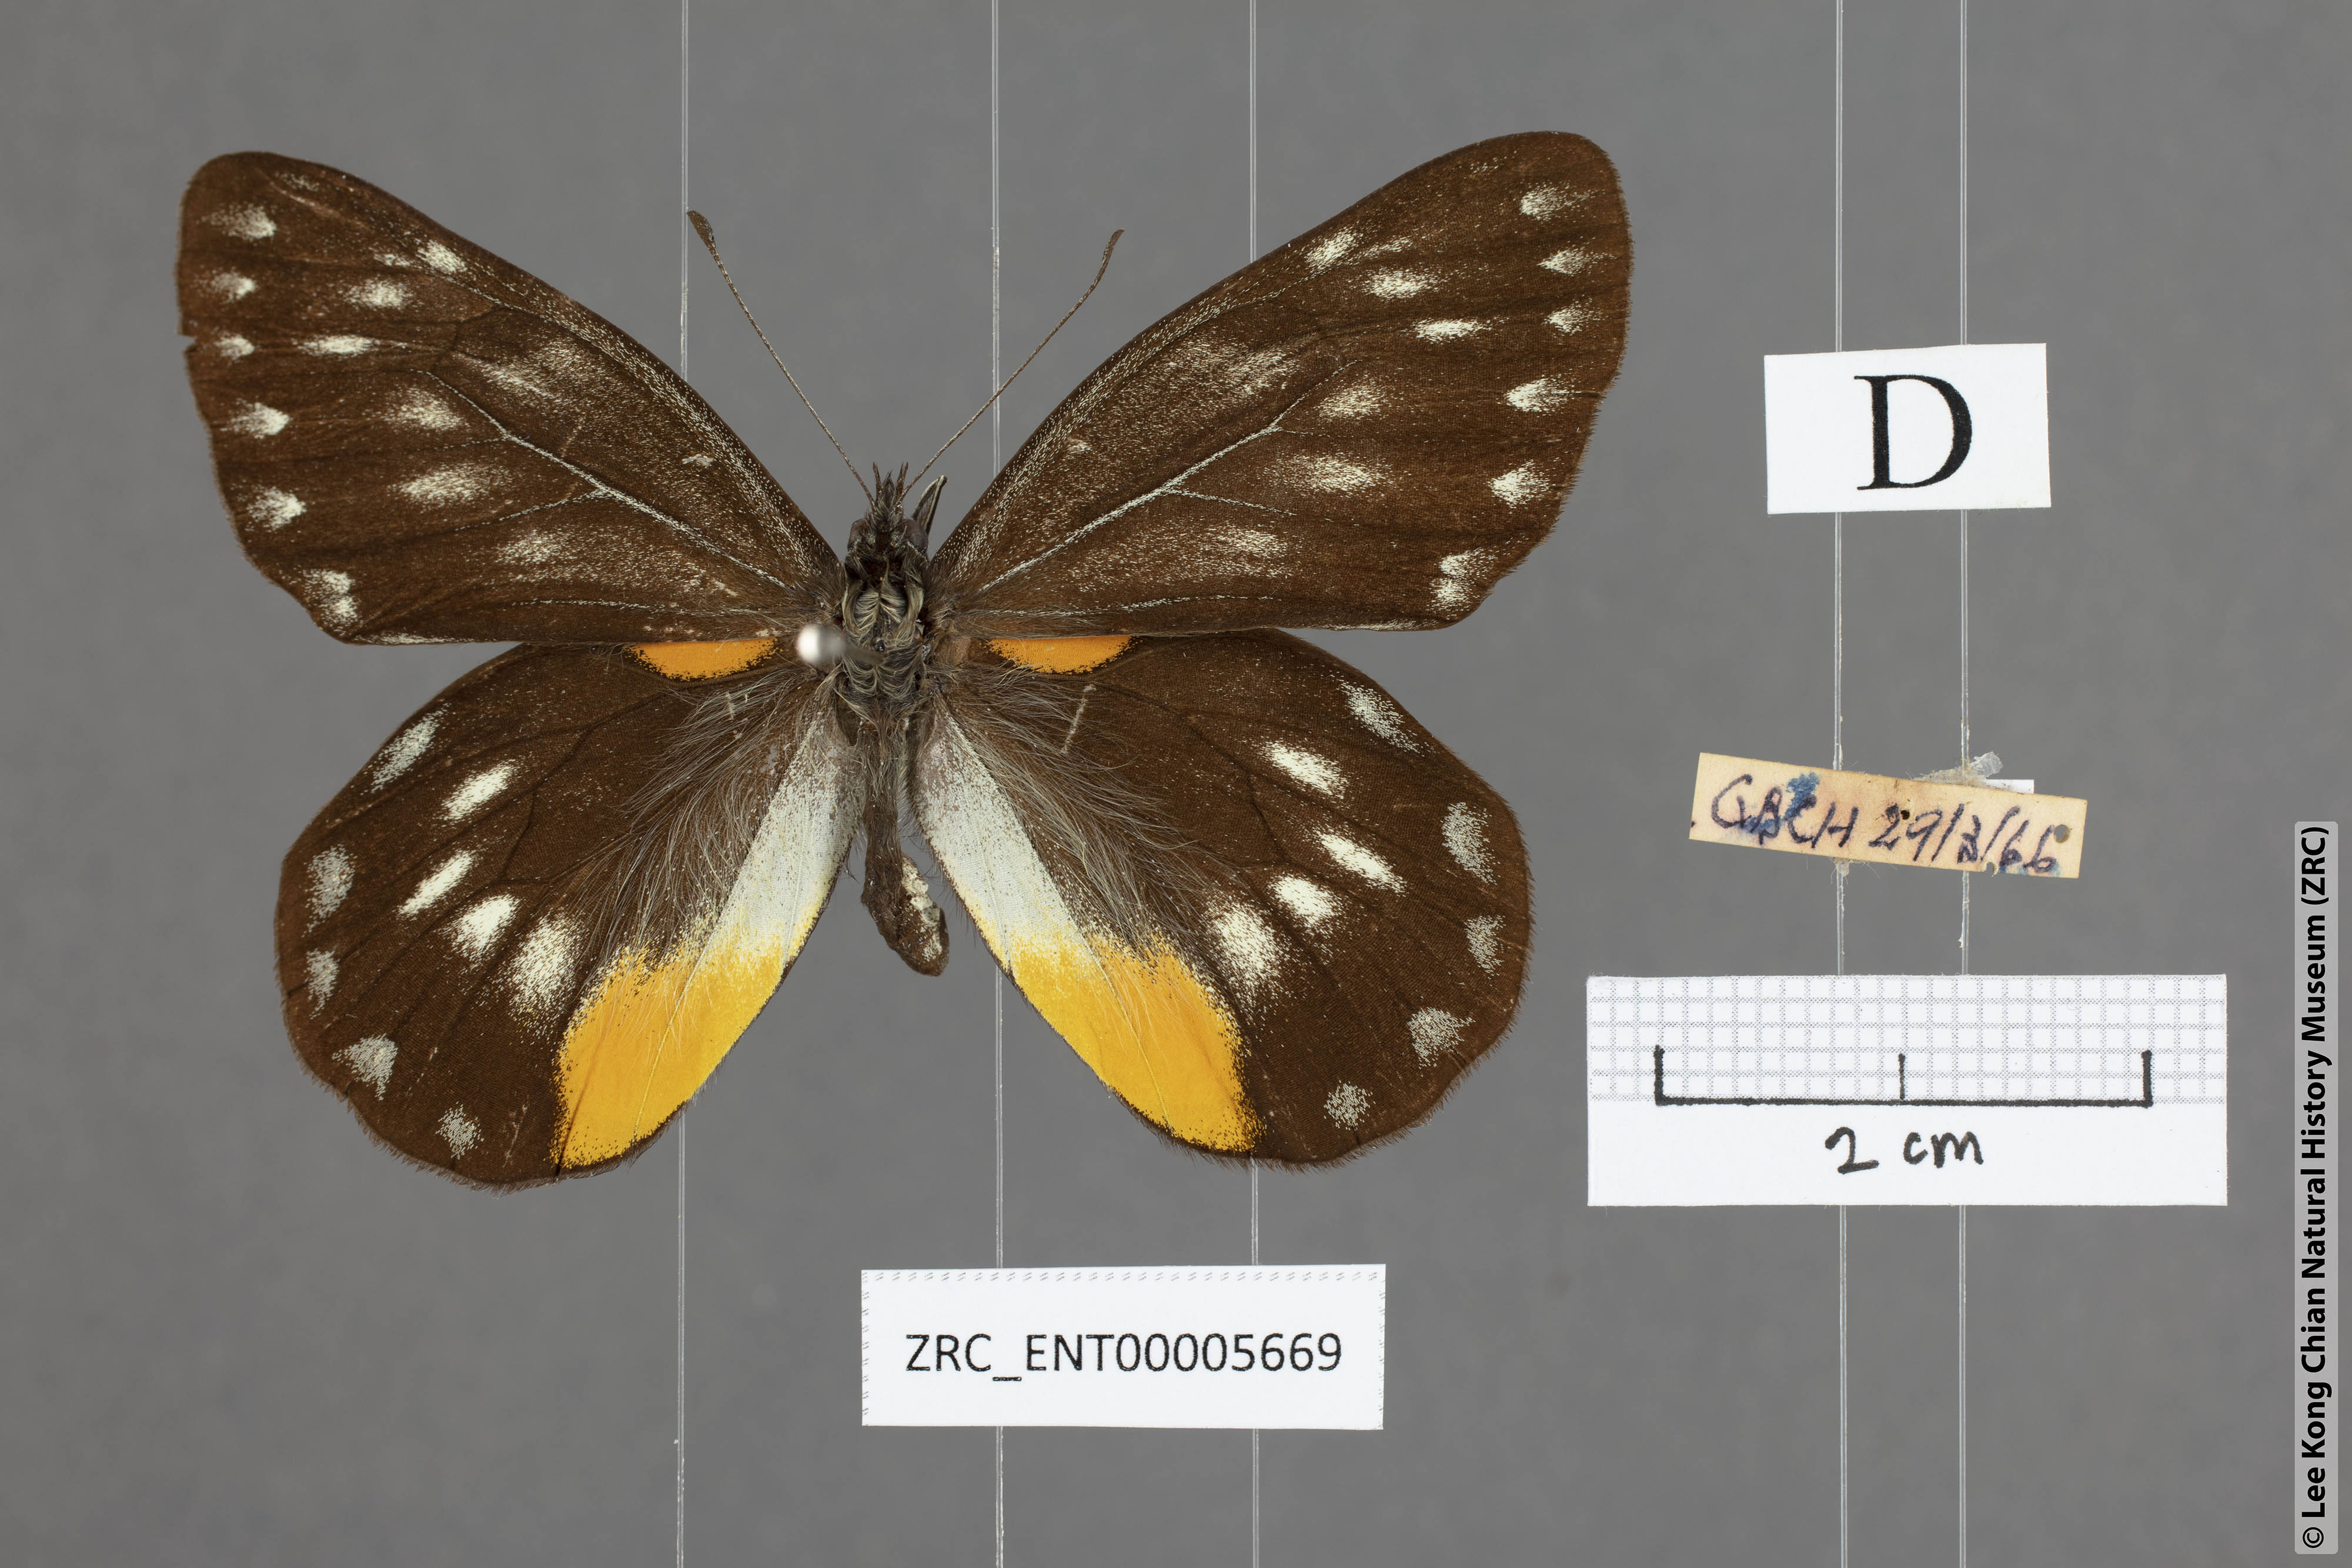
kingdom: Animalia
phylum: Arthropoda
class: Insecta
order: Lepidoptera
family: Pieridae
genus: Delias
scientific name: Delias belladonna
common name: Hill jezebel
